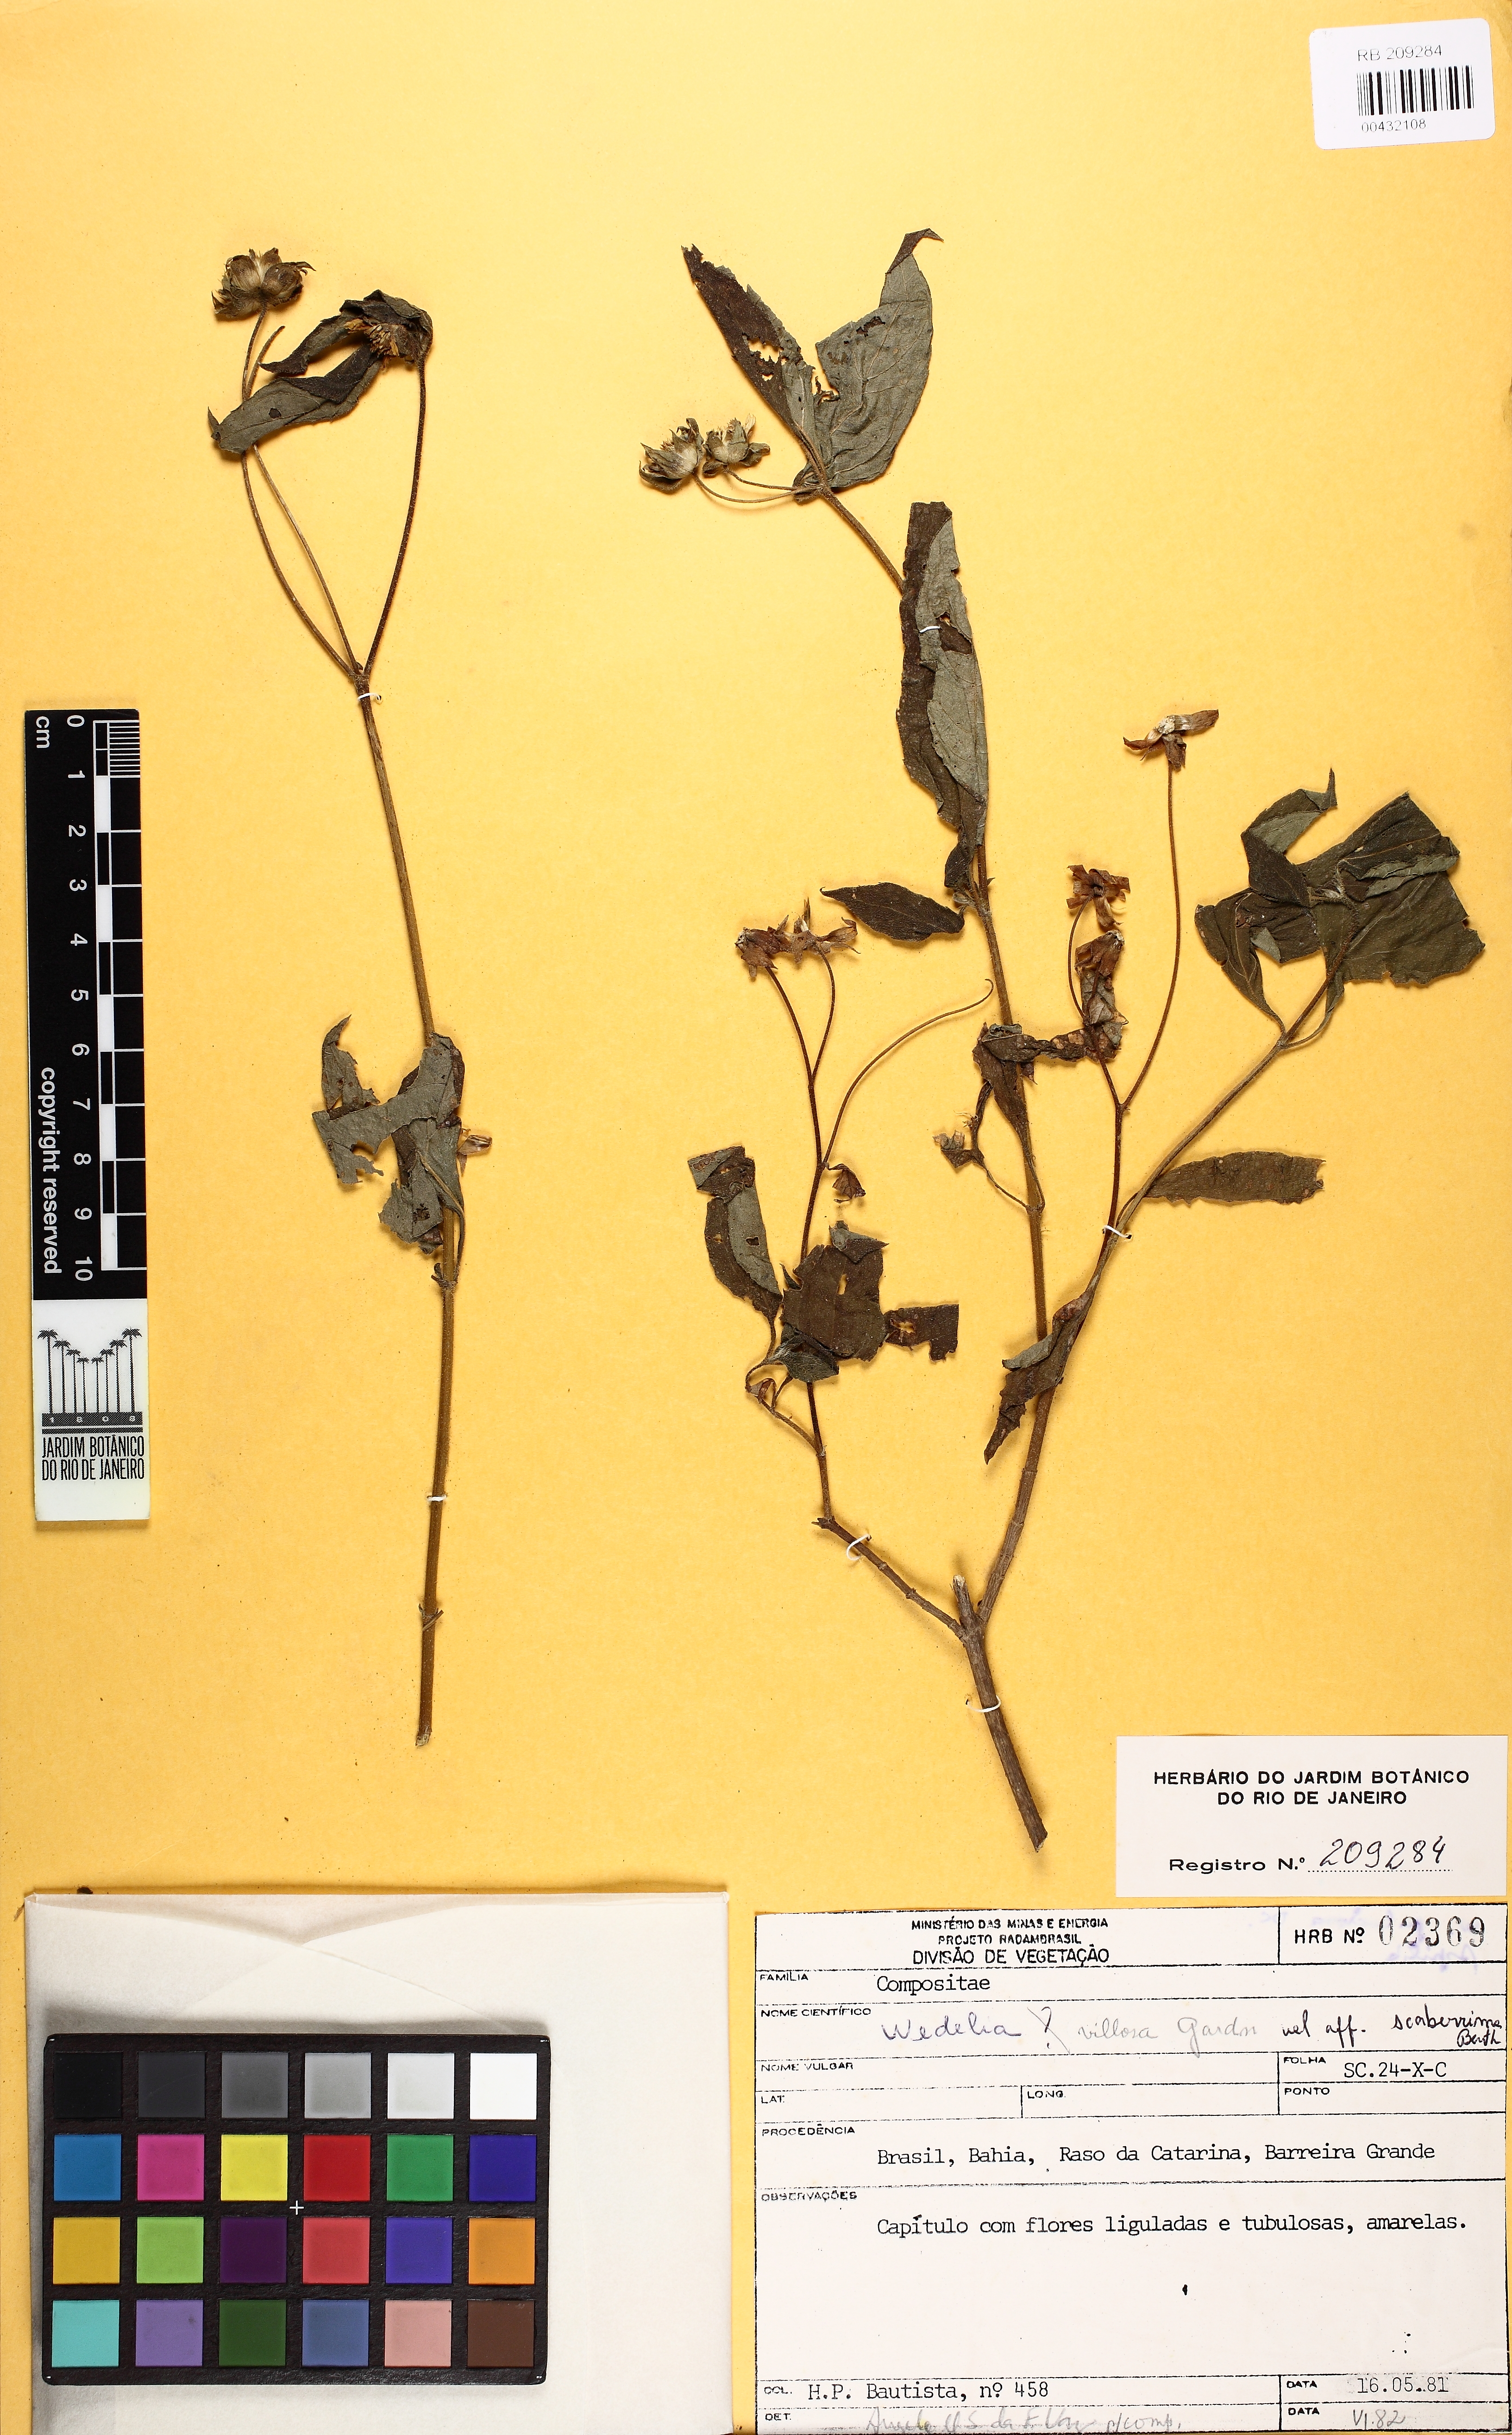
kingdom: Plantae
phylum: Tracheophyta
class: Magnoliopsida
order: Asterales
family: Asteraceae
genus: Wedelia
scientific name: Wedelia goyazensis
